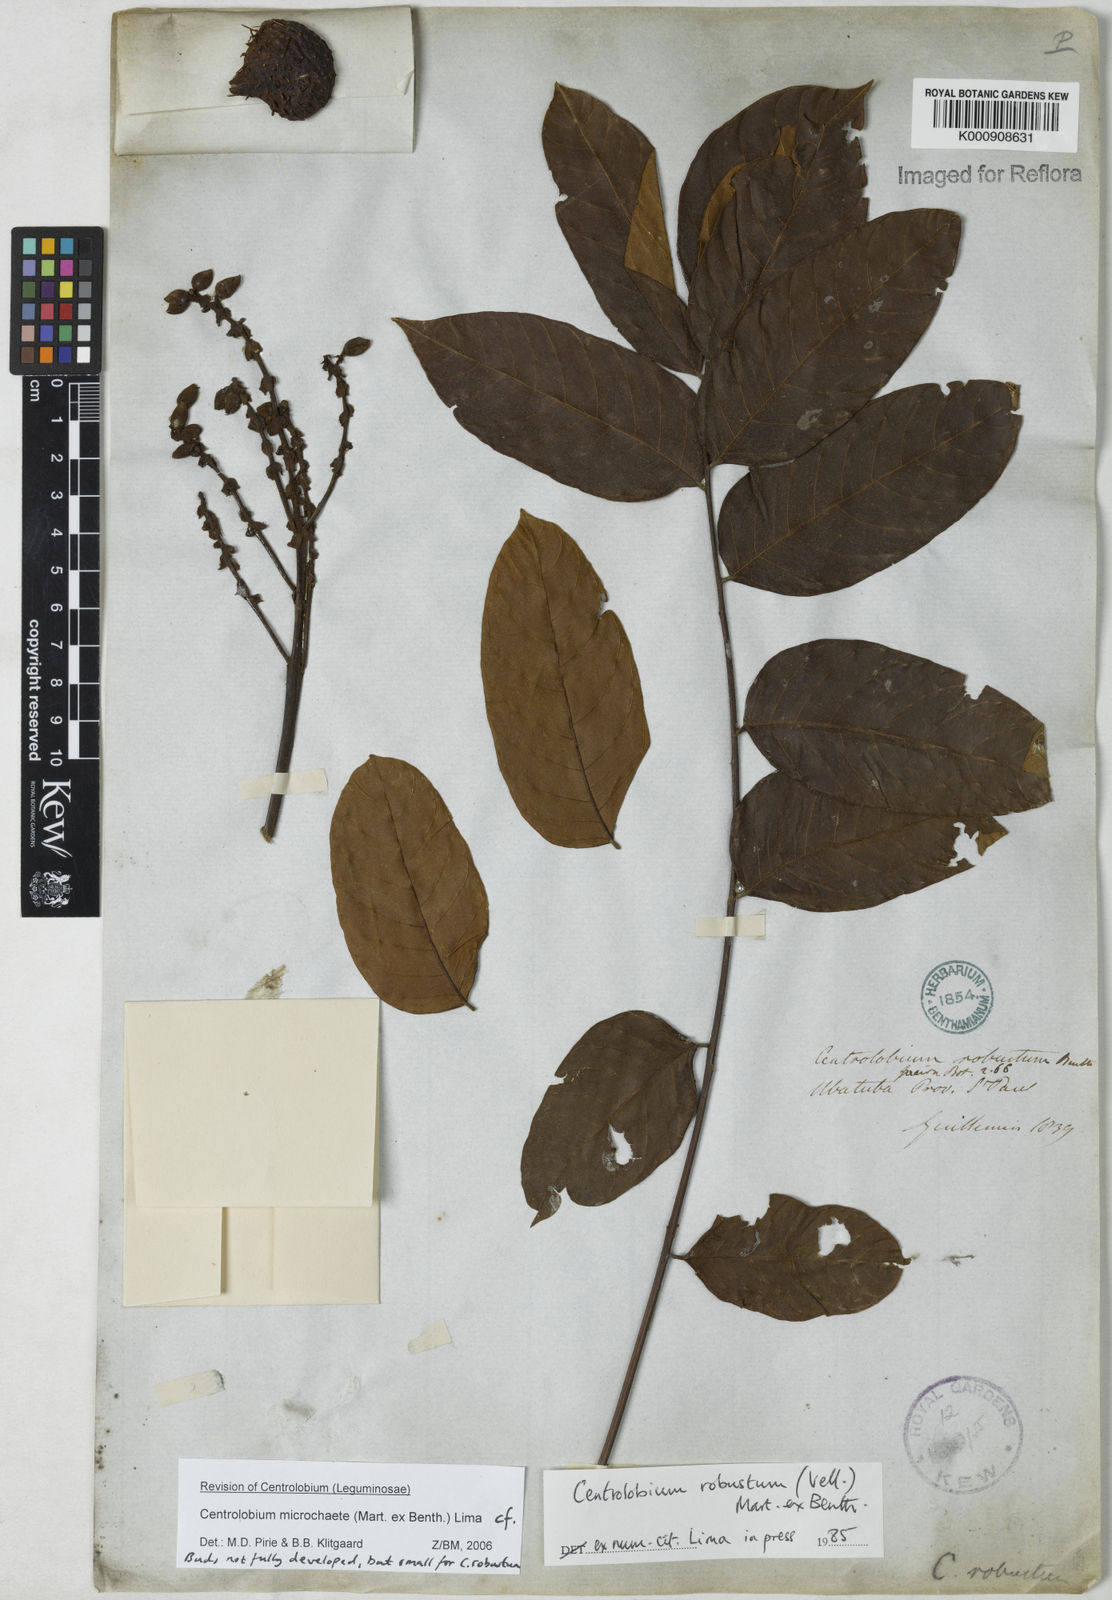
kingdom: Plantae
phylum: Tracheophyta
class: Magnoliopsida
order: Fabales
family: Fabaceae
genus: Centrolobium
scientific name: Centrolobium microchaete
